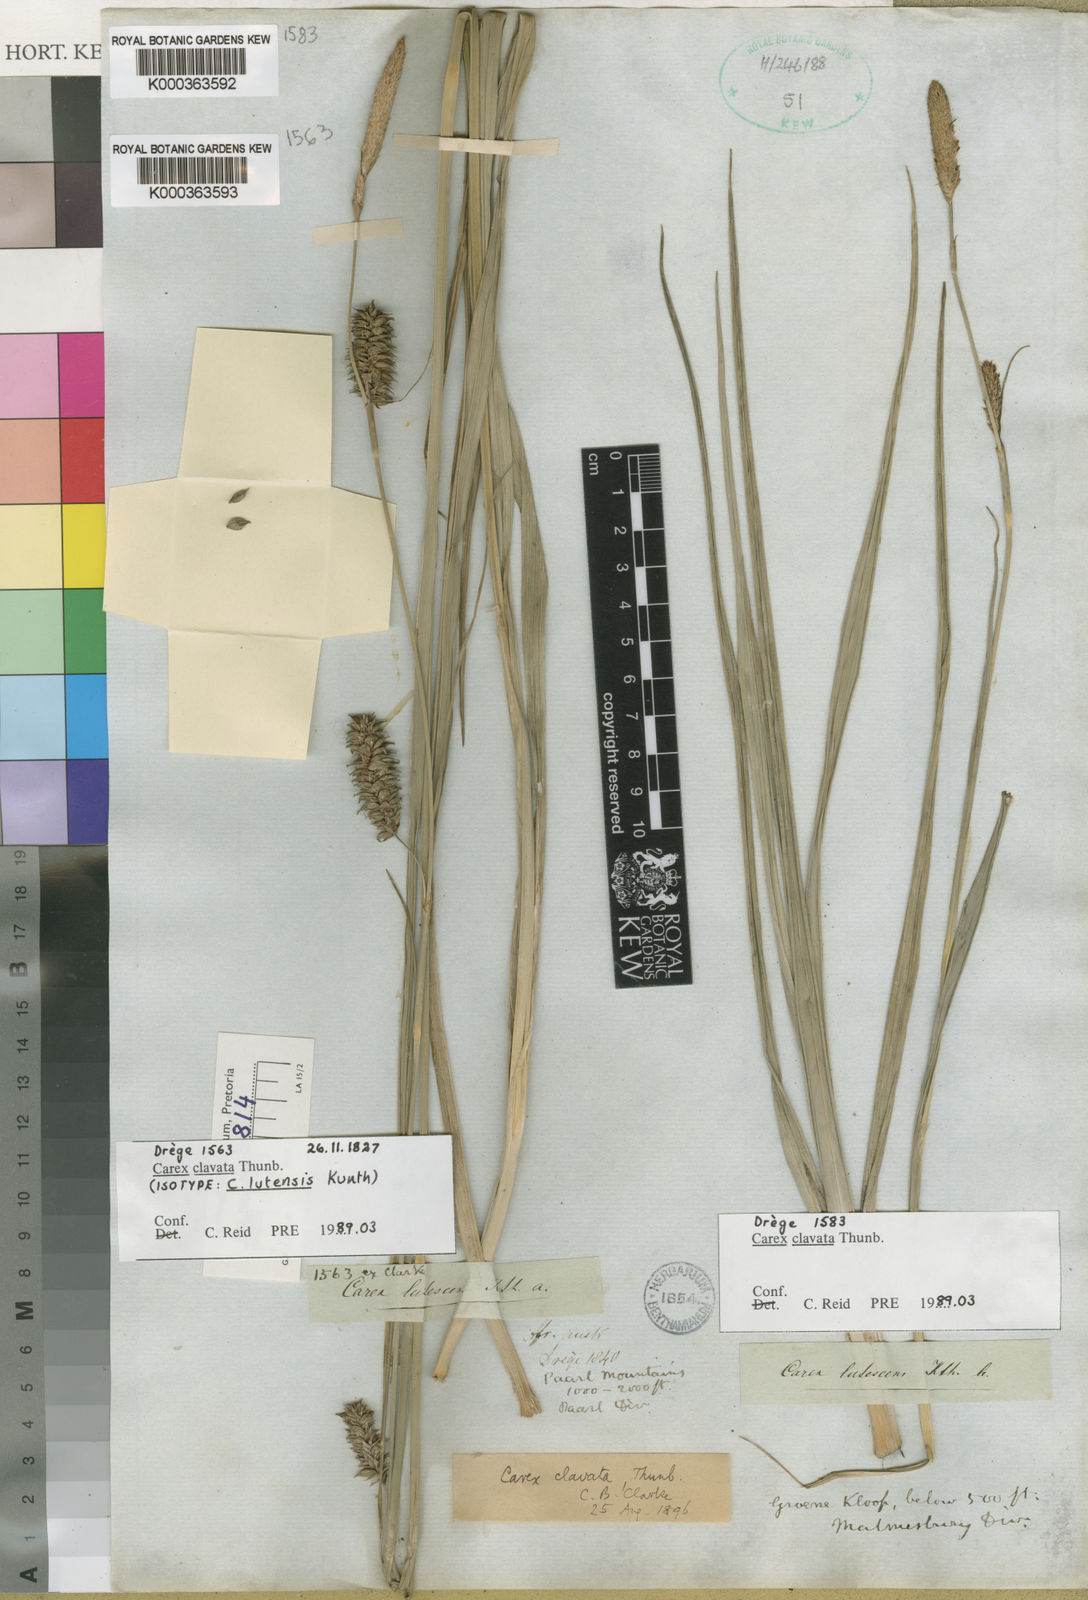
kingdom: Plantae
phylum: Tracheophyta
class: Liliopsida
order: Poales
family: Cyperaceae
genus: Carex
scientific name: Carex clavata
